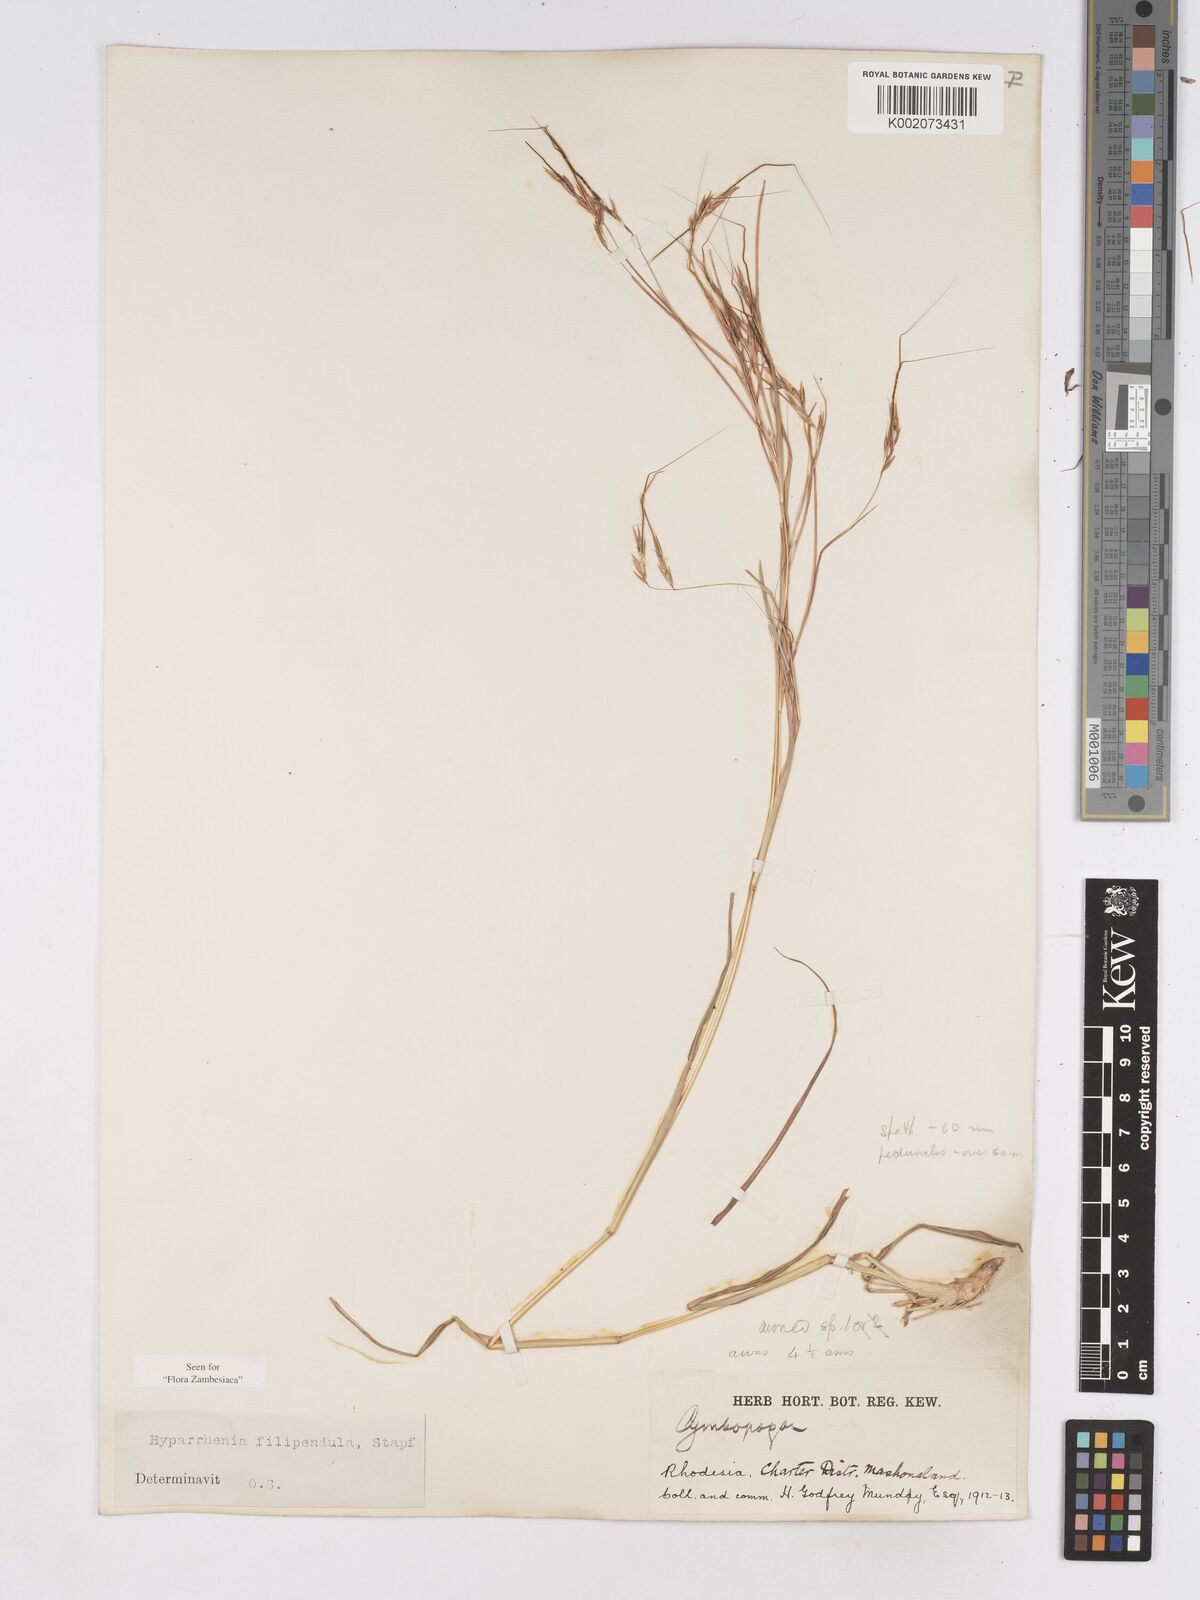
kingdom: Plantae
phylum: Tracheophyta
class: Liliopsida
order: Poales
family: Poaceae
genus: Hyparrhenia
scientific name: Hyparrhenia filipendula
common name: Tambookie grass
